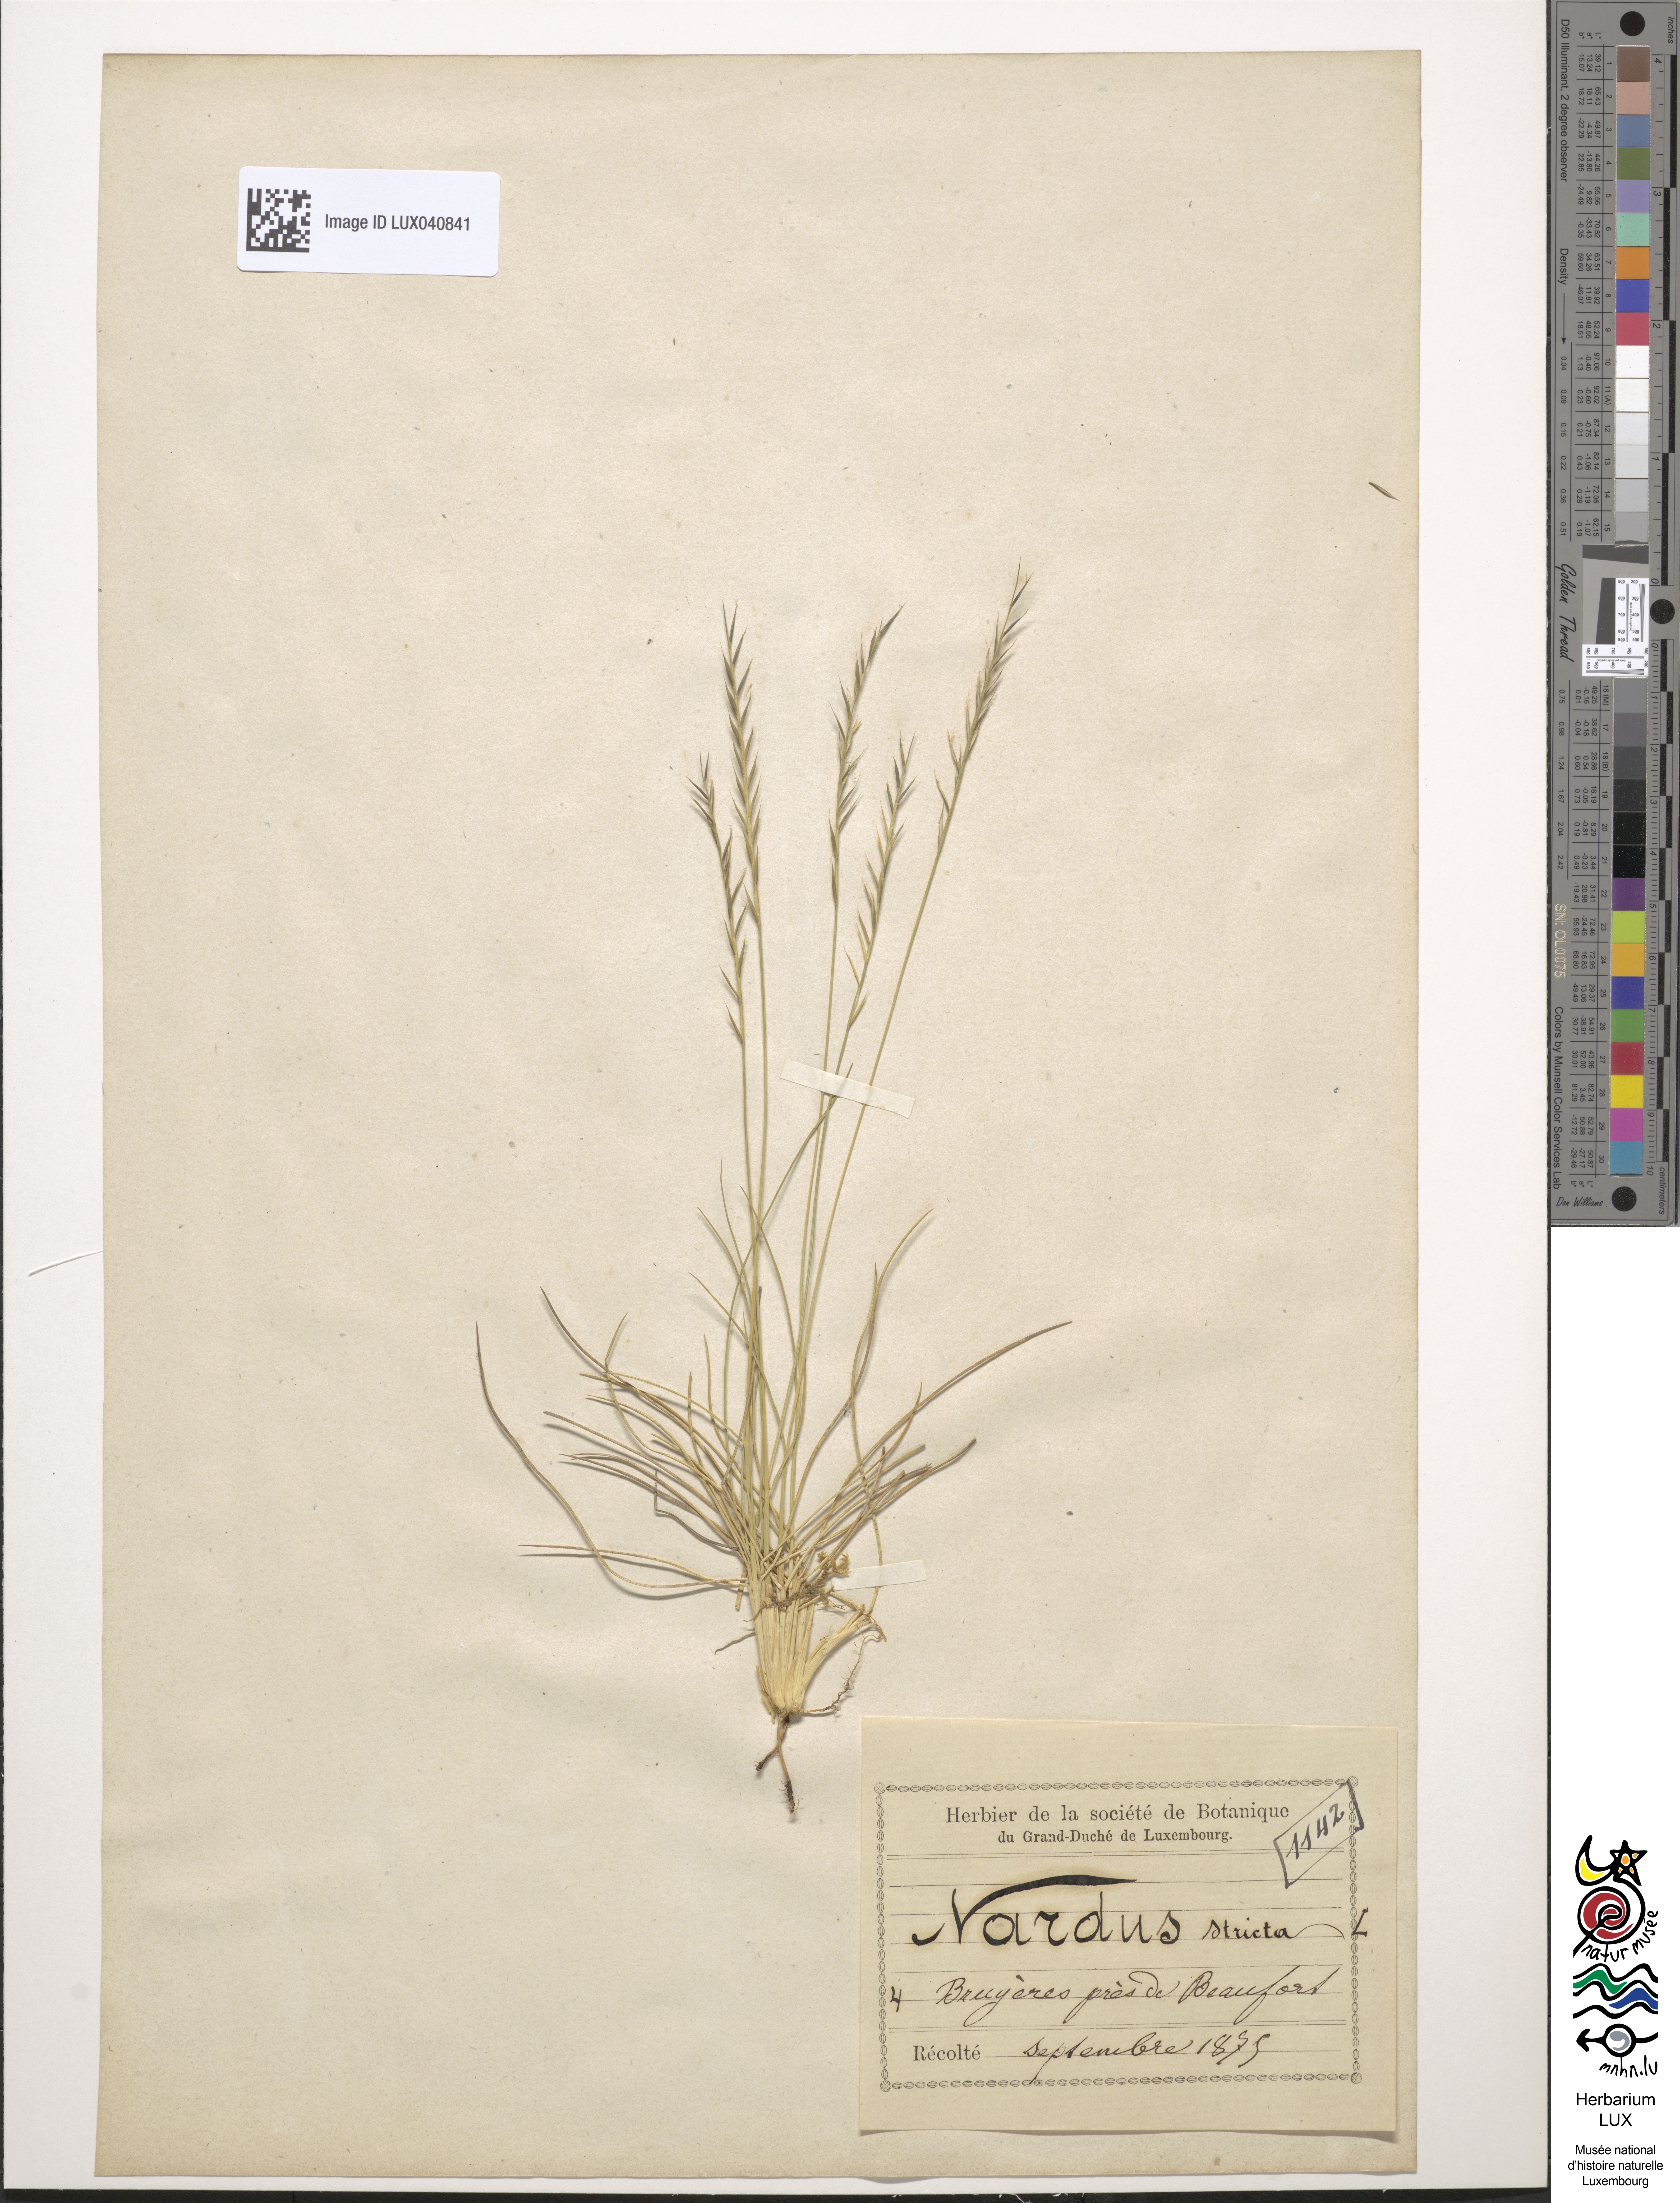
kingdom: Plantae
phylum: Tracheophyta
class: Liliopsida
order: Poales
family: Poaceae
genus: Nardus
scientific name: Nardus stricta
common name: Mat-grass
